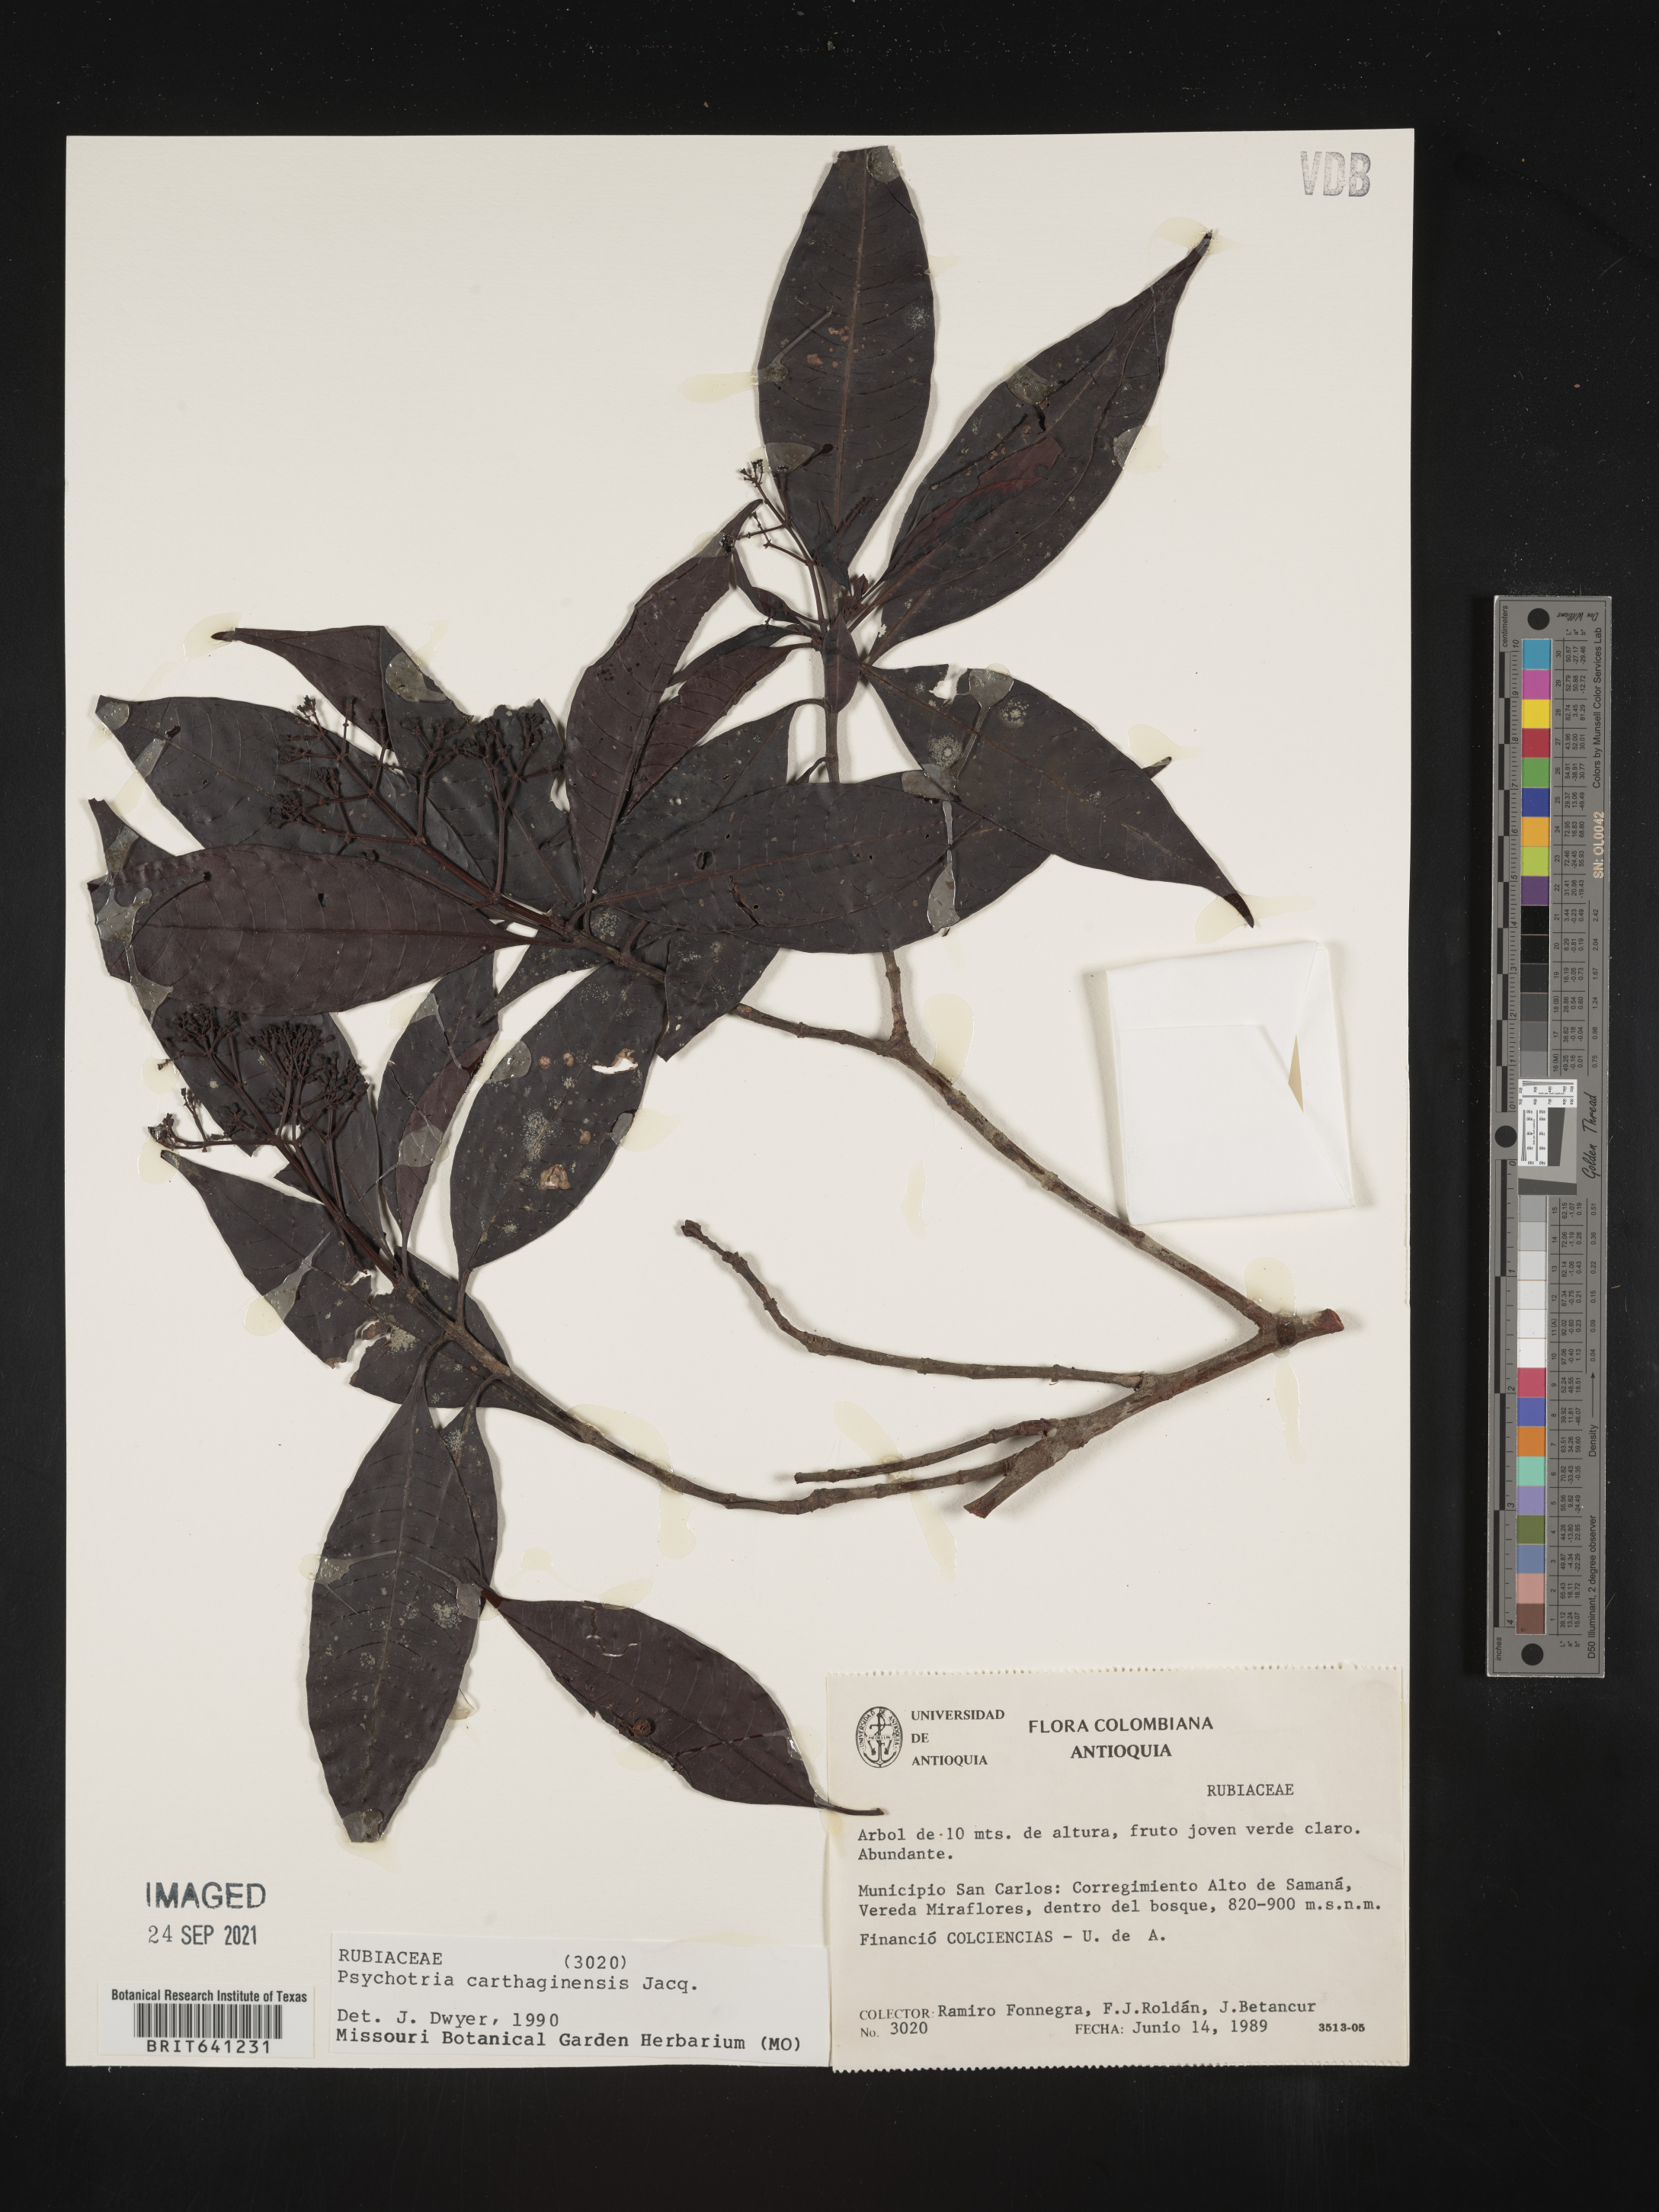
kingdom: Plantae
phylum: Tracheophyta
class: Magnoliopsida
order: Gentianales
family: Rubiaceae
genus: Psychotria
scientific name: Psychotria
